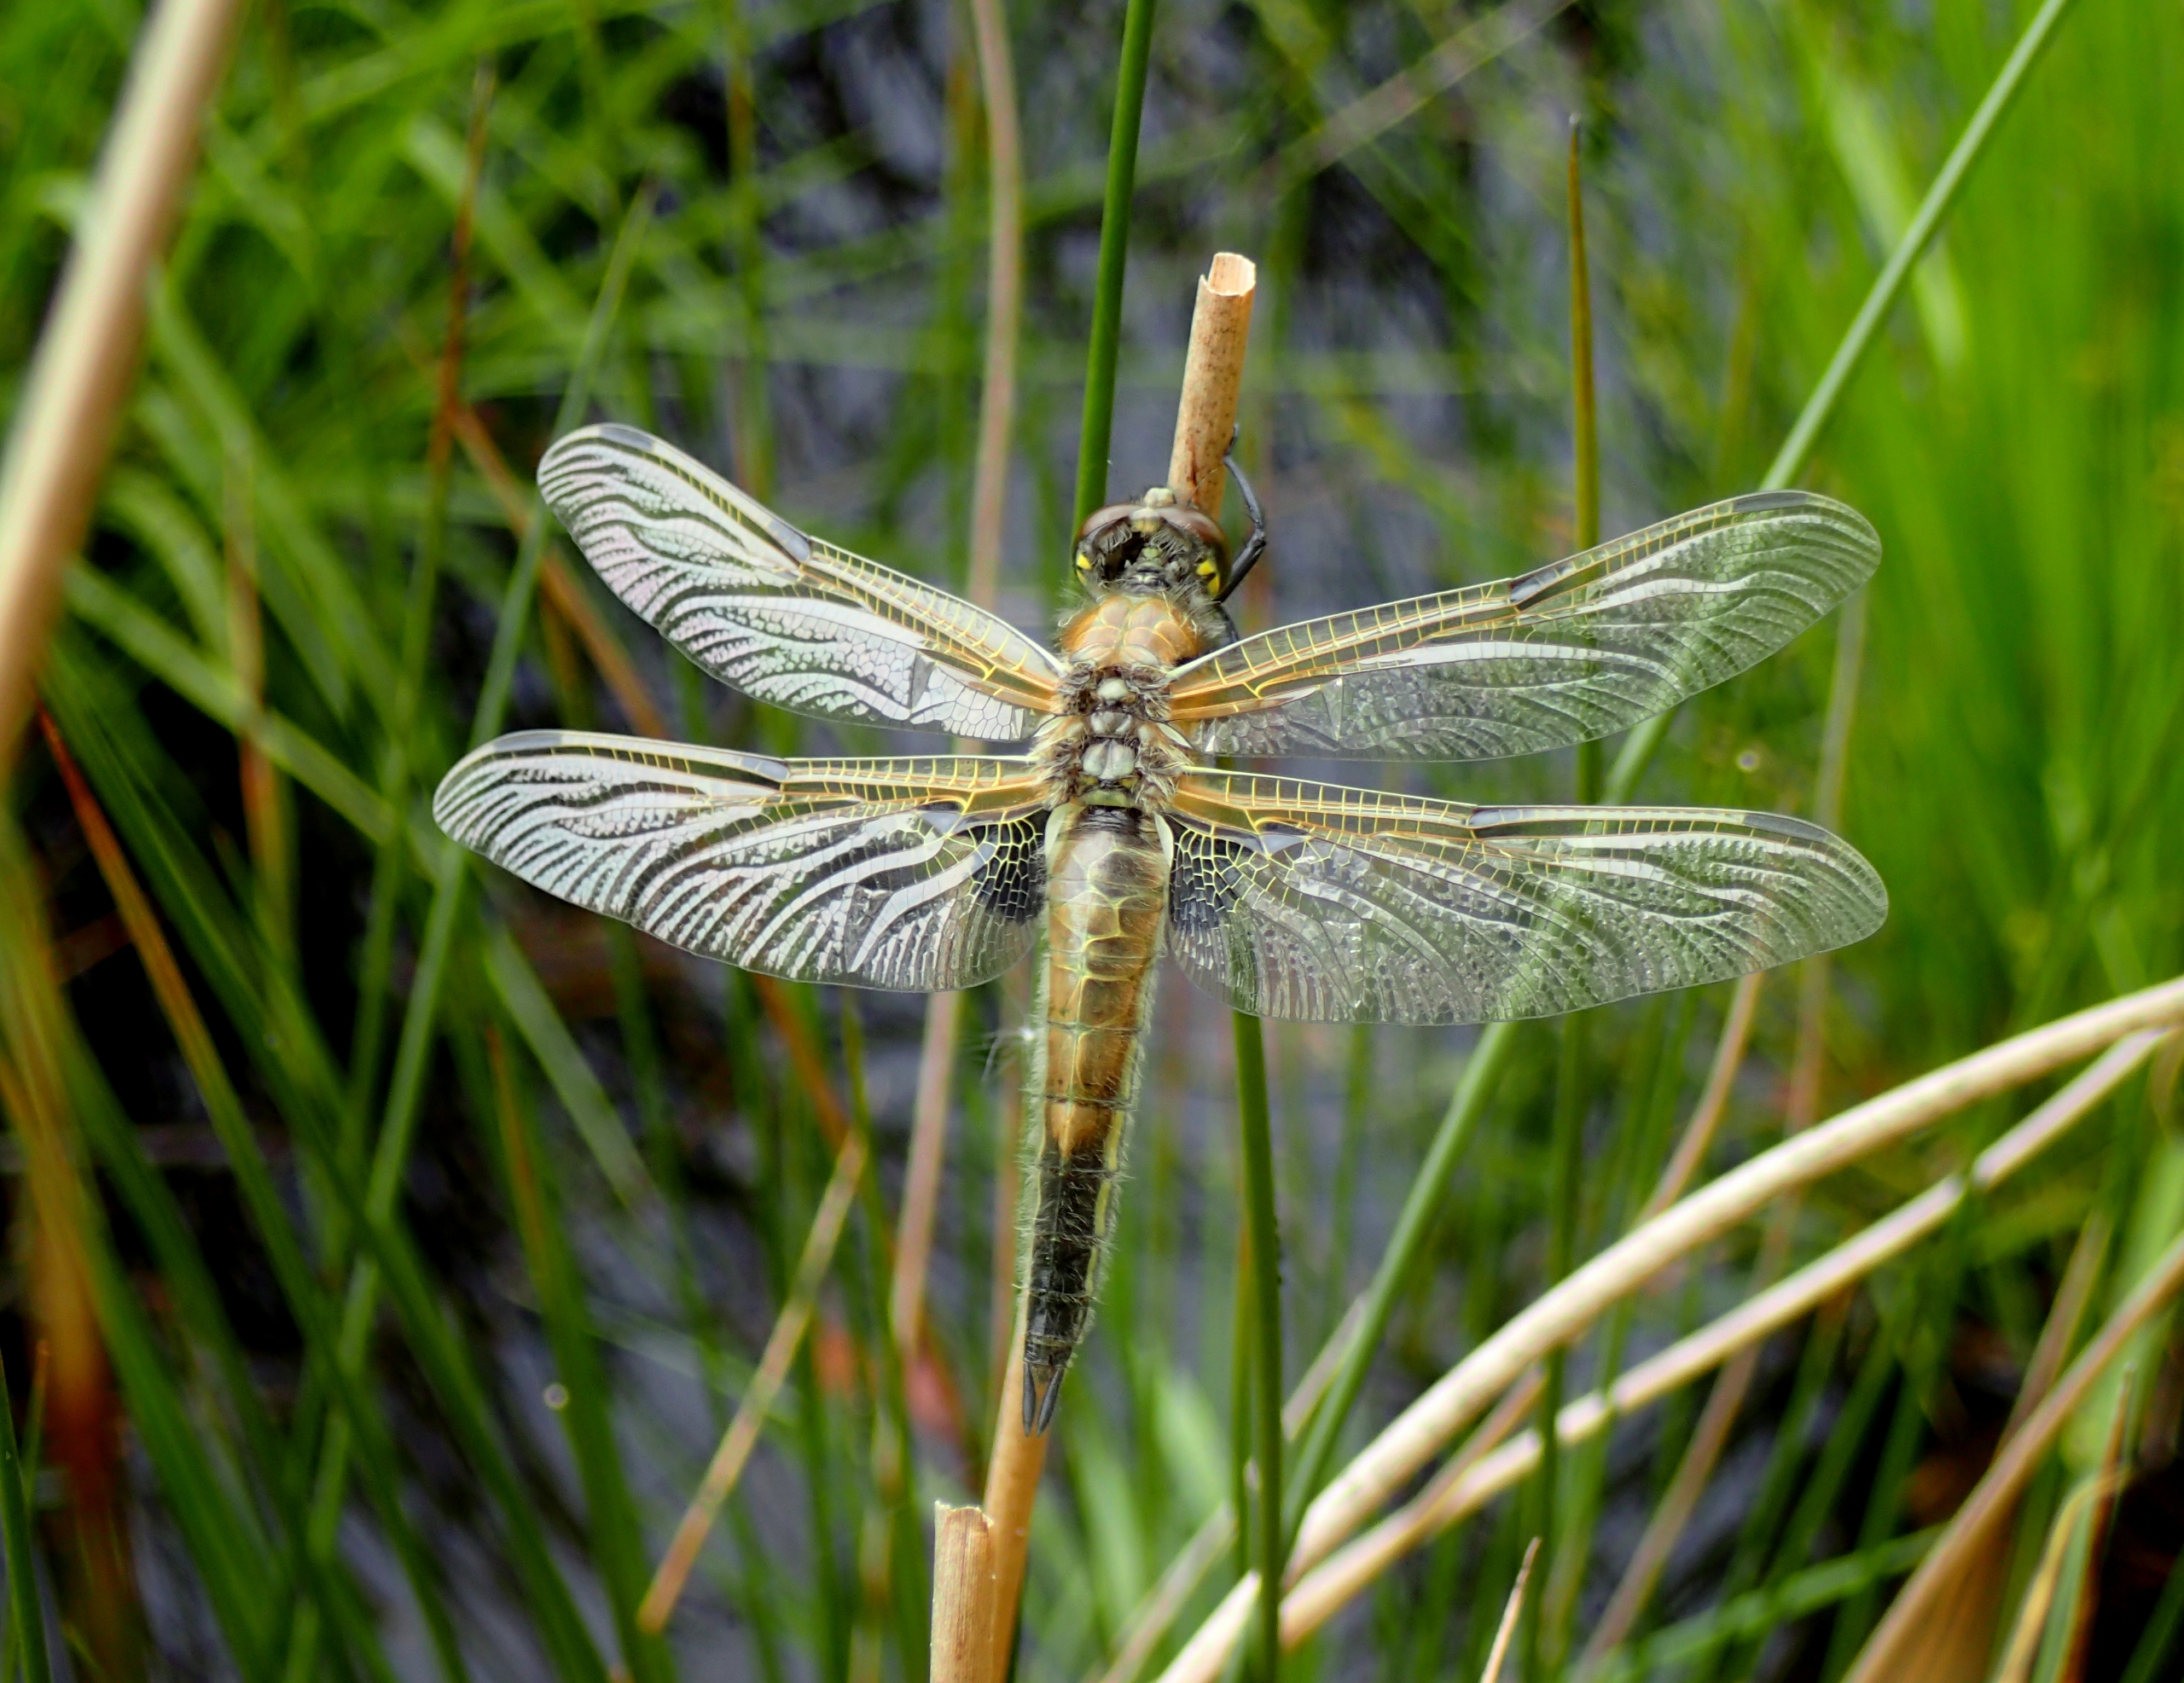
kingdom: Animalia
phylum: Arthropoda
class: Insecta
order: Odonata
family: Libellulidae
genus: Libellula
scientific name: Libellula quadrimaculata
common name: Fireplettet libel
